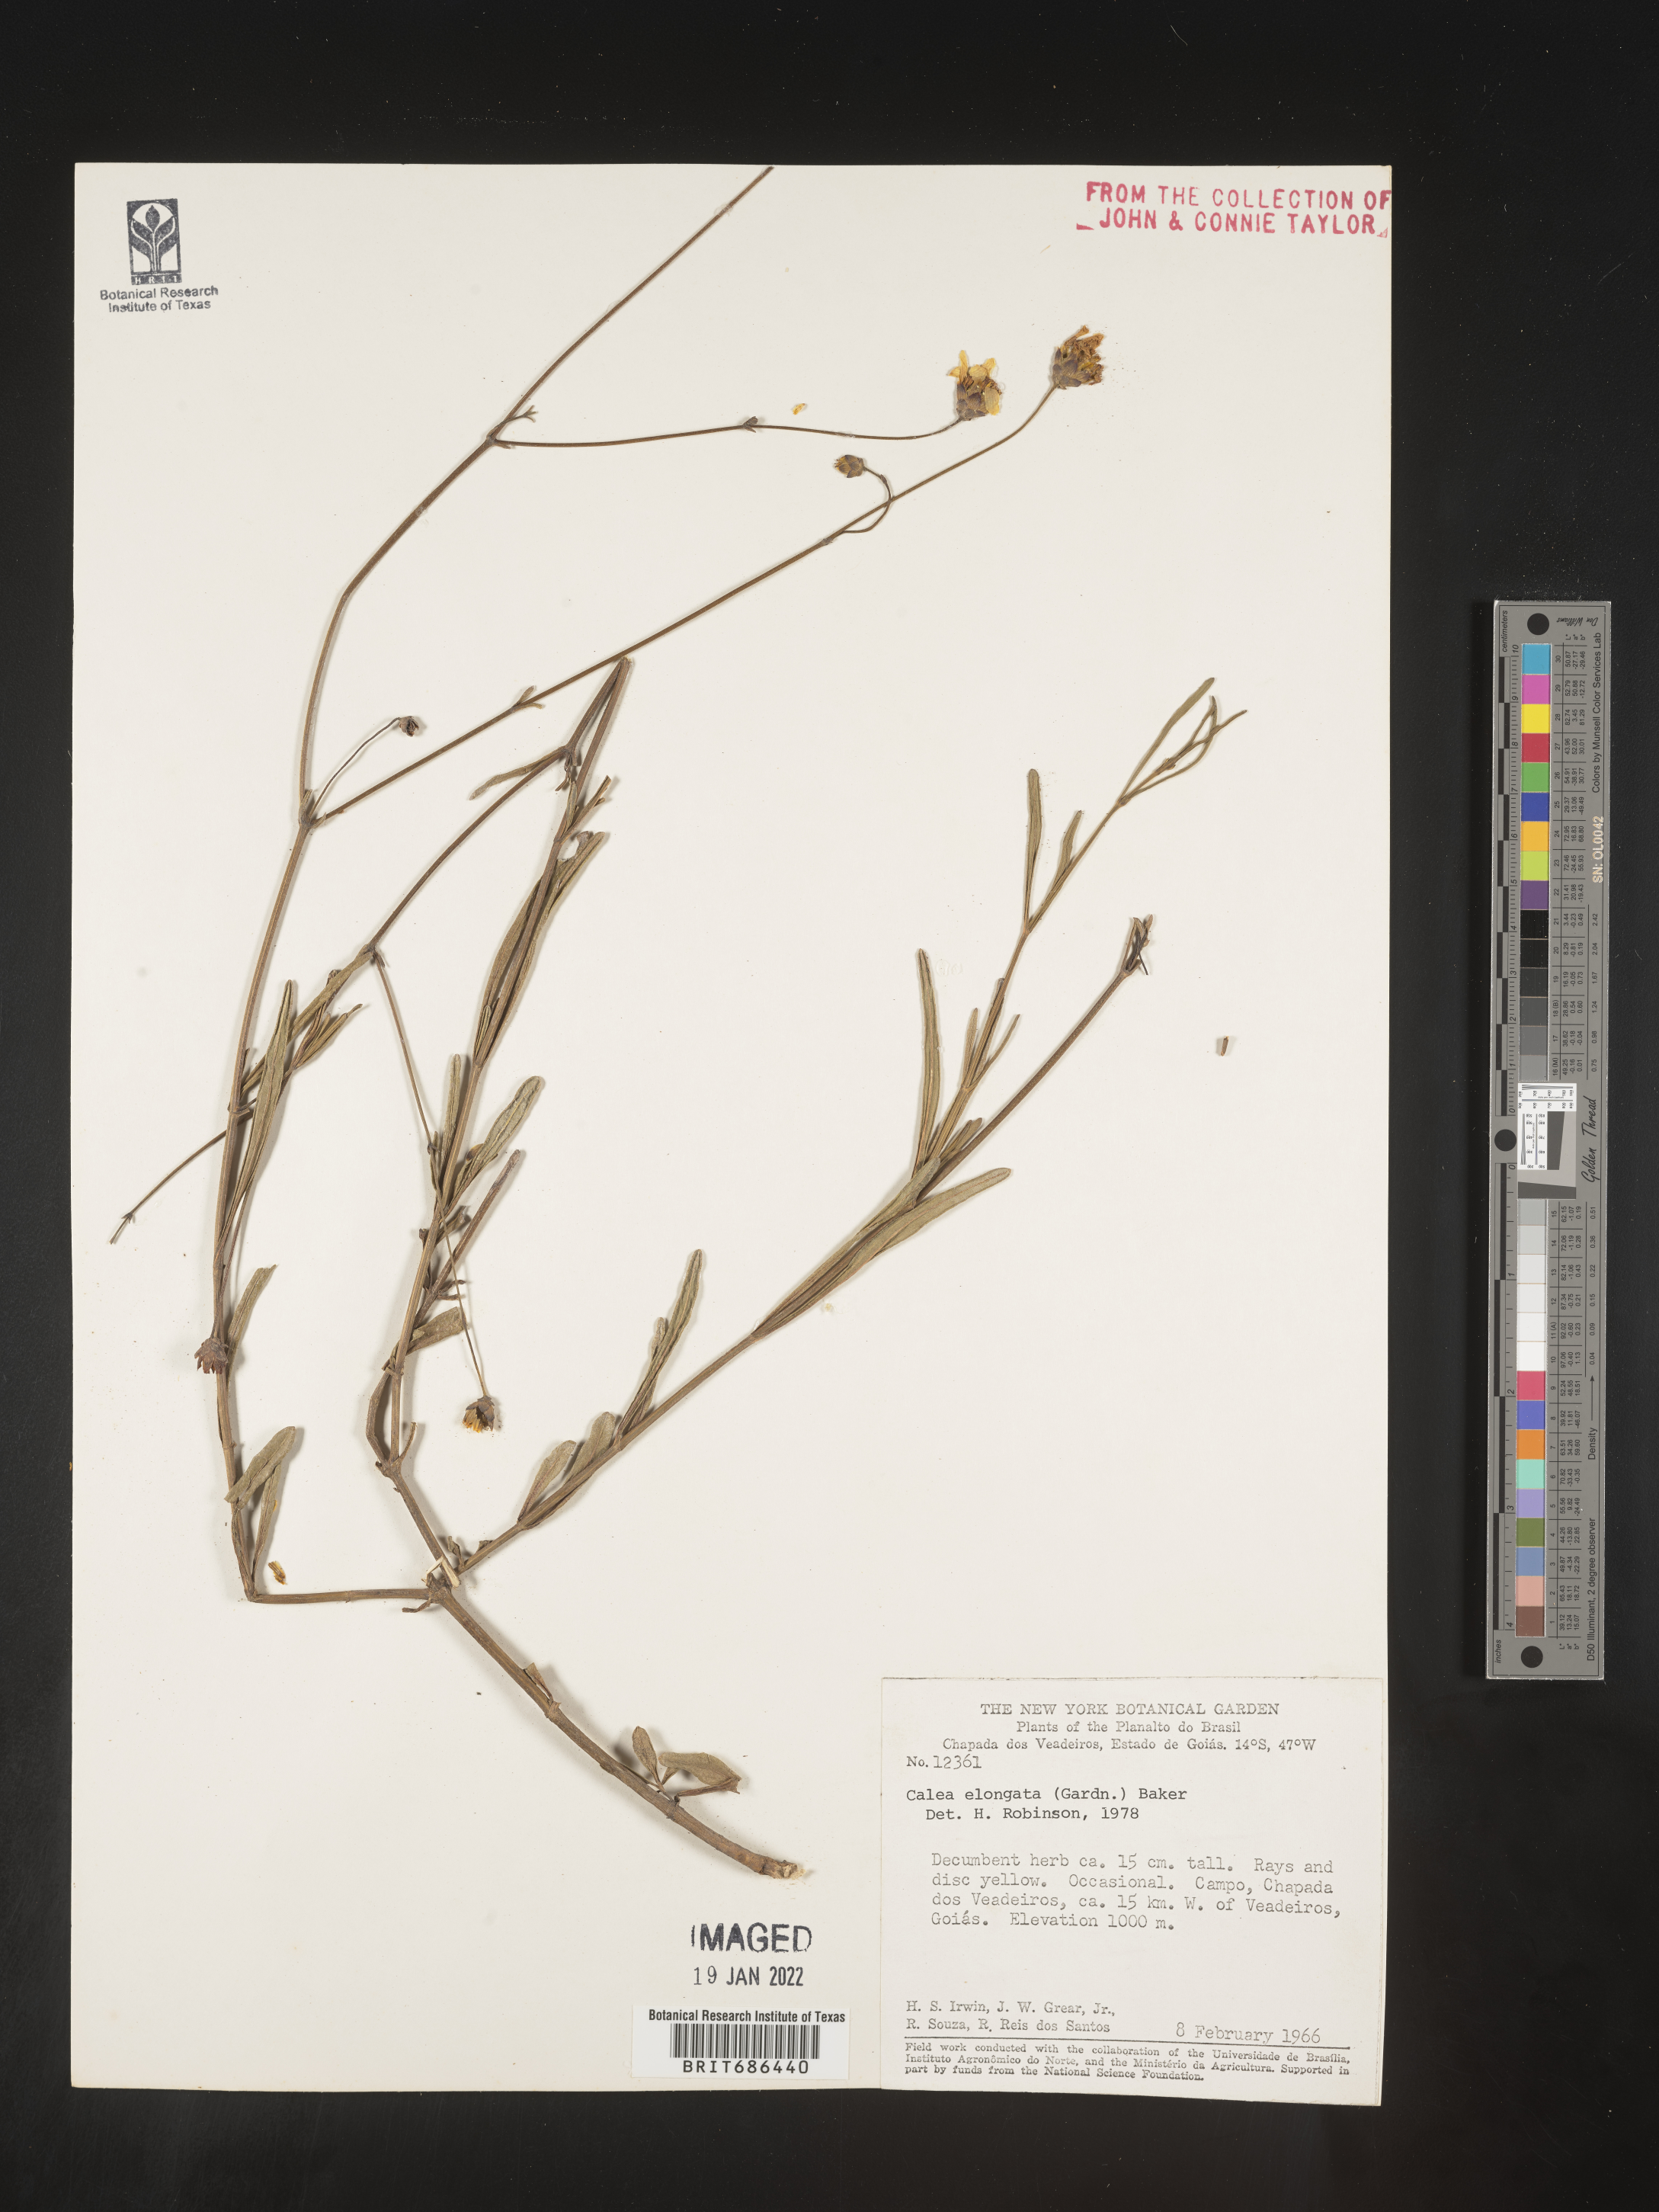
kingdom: Plantae
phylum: Tracheophyta
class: Magnoliopsida
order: Asterales
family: Asteraceae
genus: Calea
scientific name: Calea
